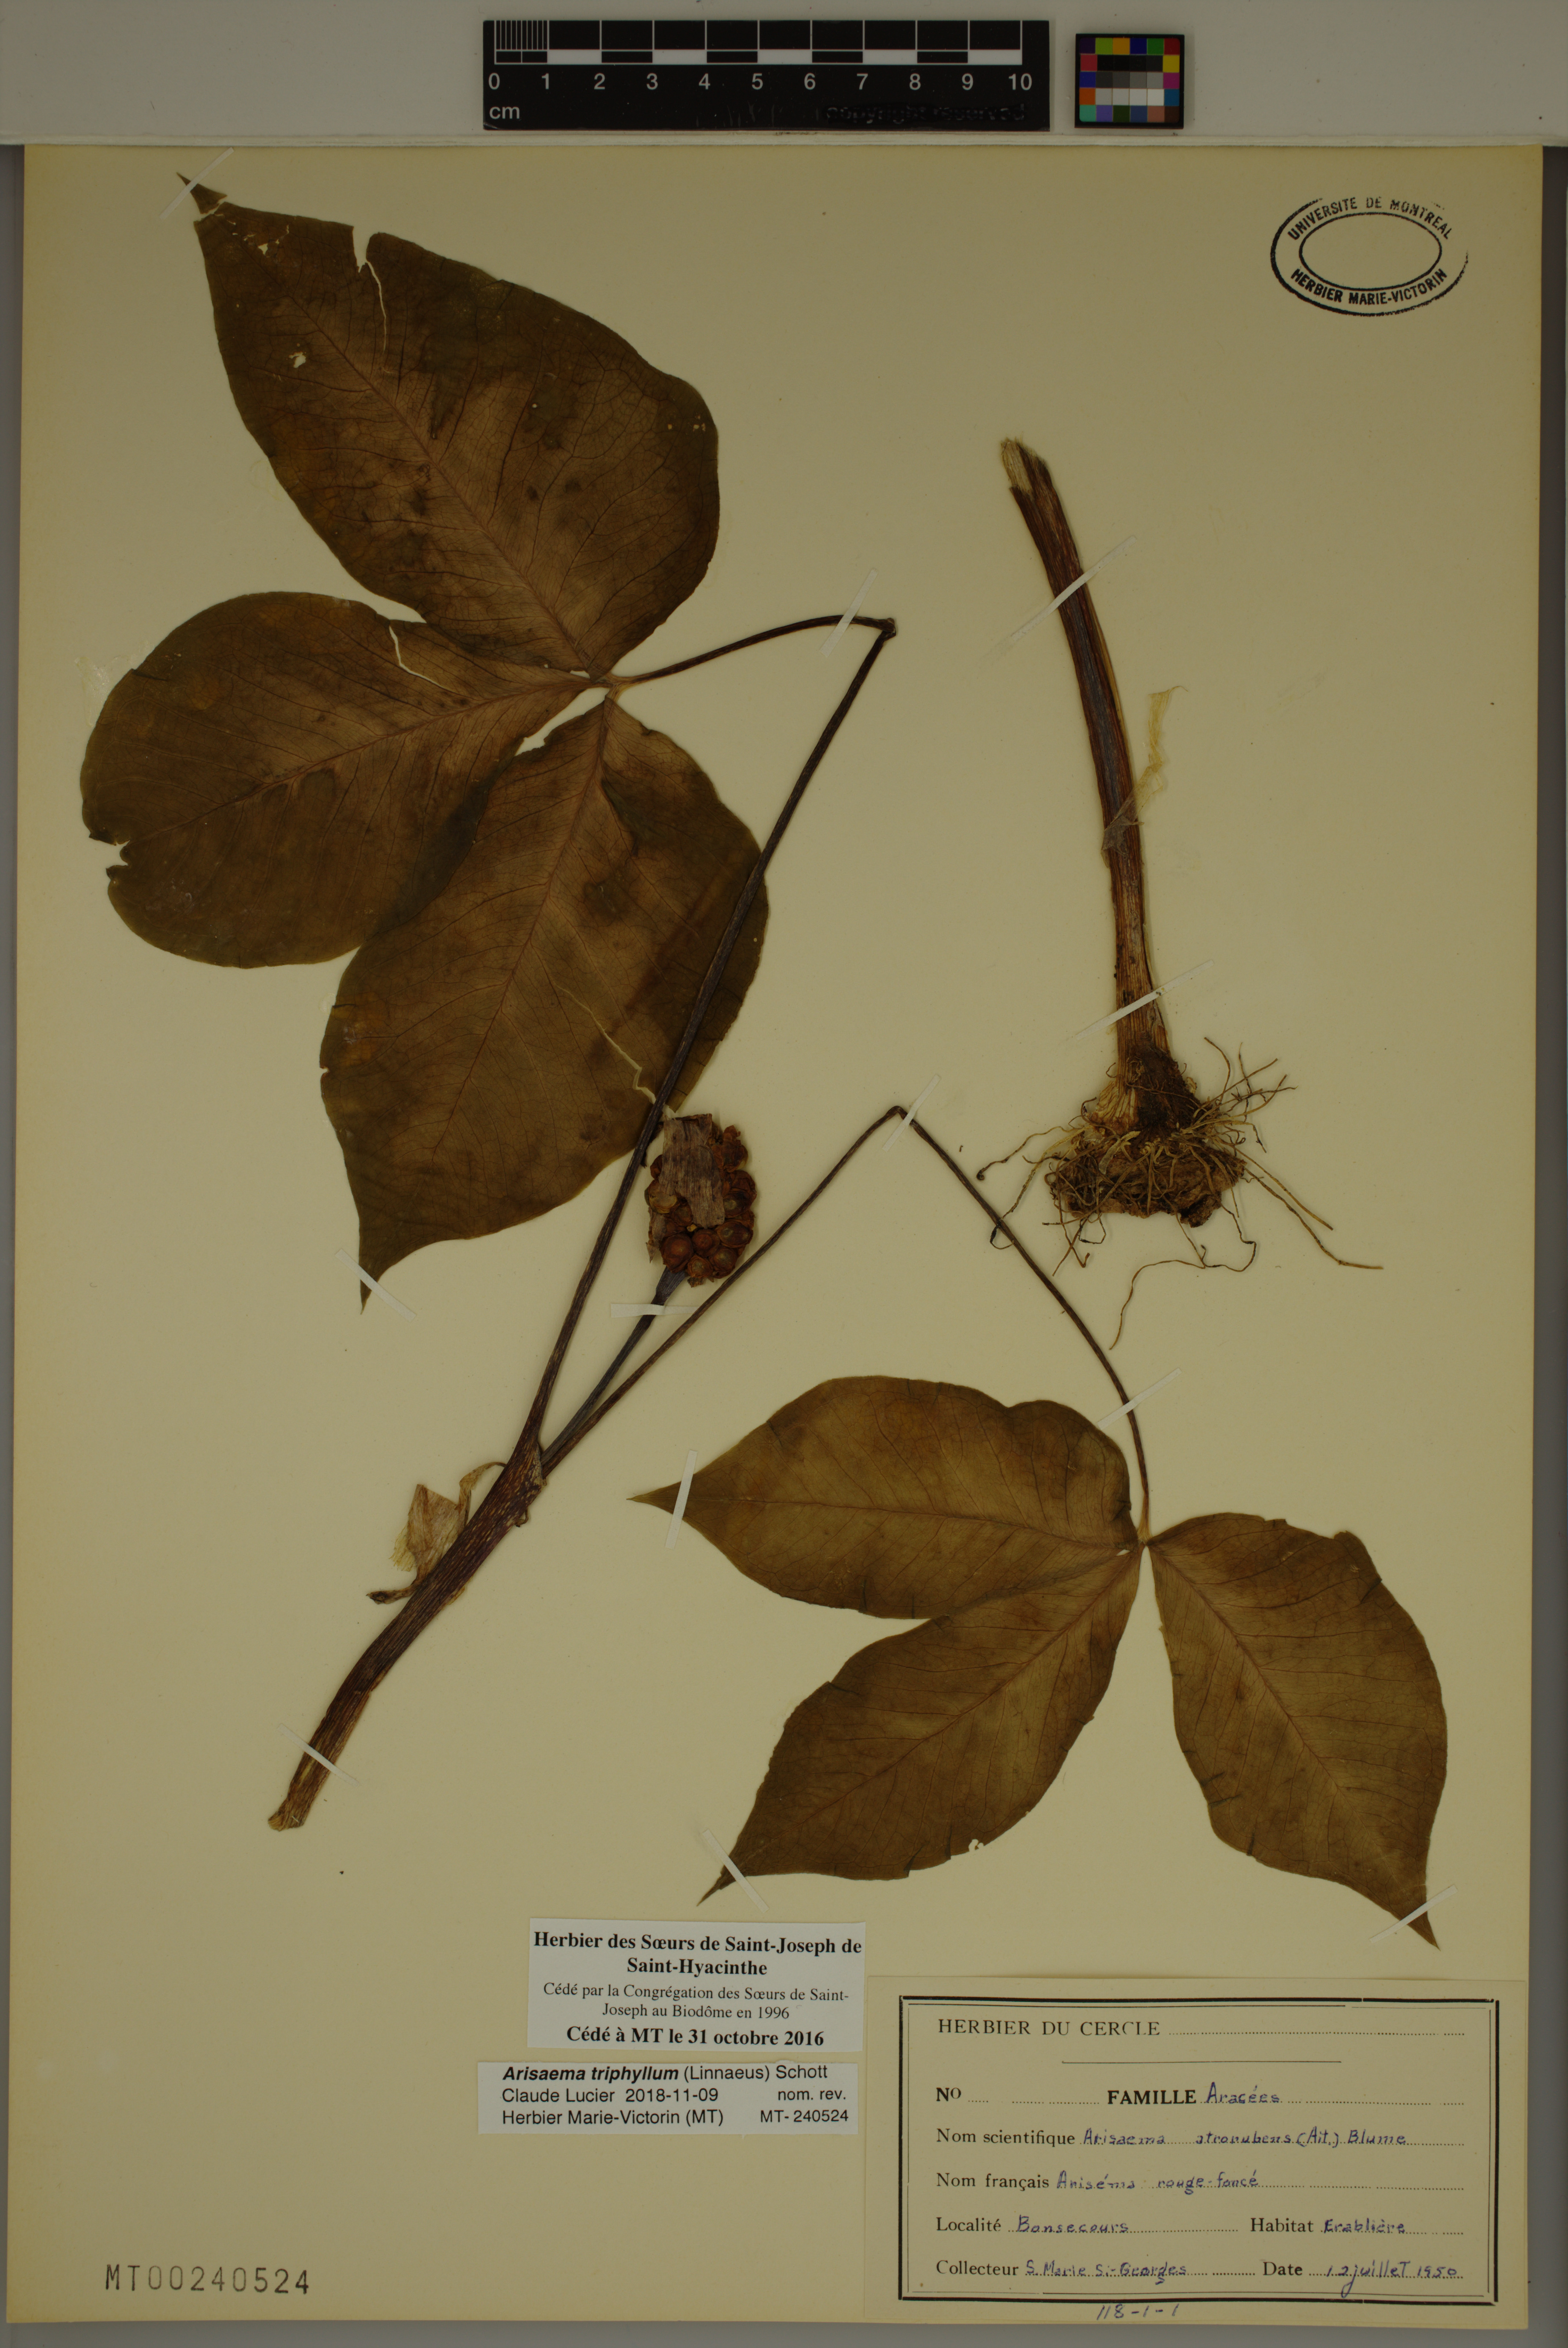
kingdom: Plantae
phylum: Tracheophyta
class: Liliopsida
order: Alismatales
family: Araceae
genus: Arisaema
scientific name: Arisaema triphyllum
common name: Jack-in-the-pulpit
